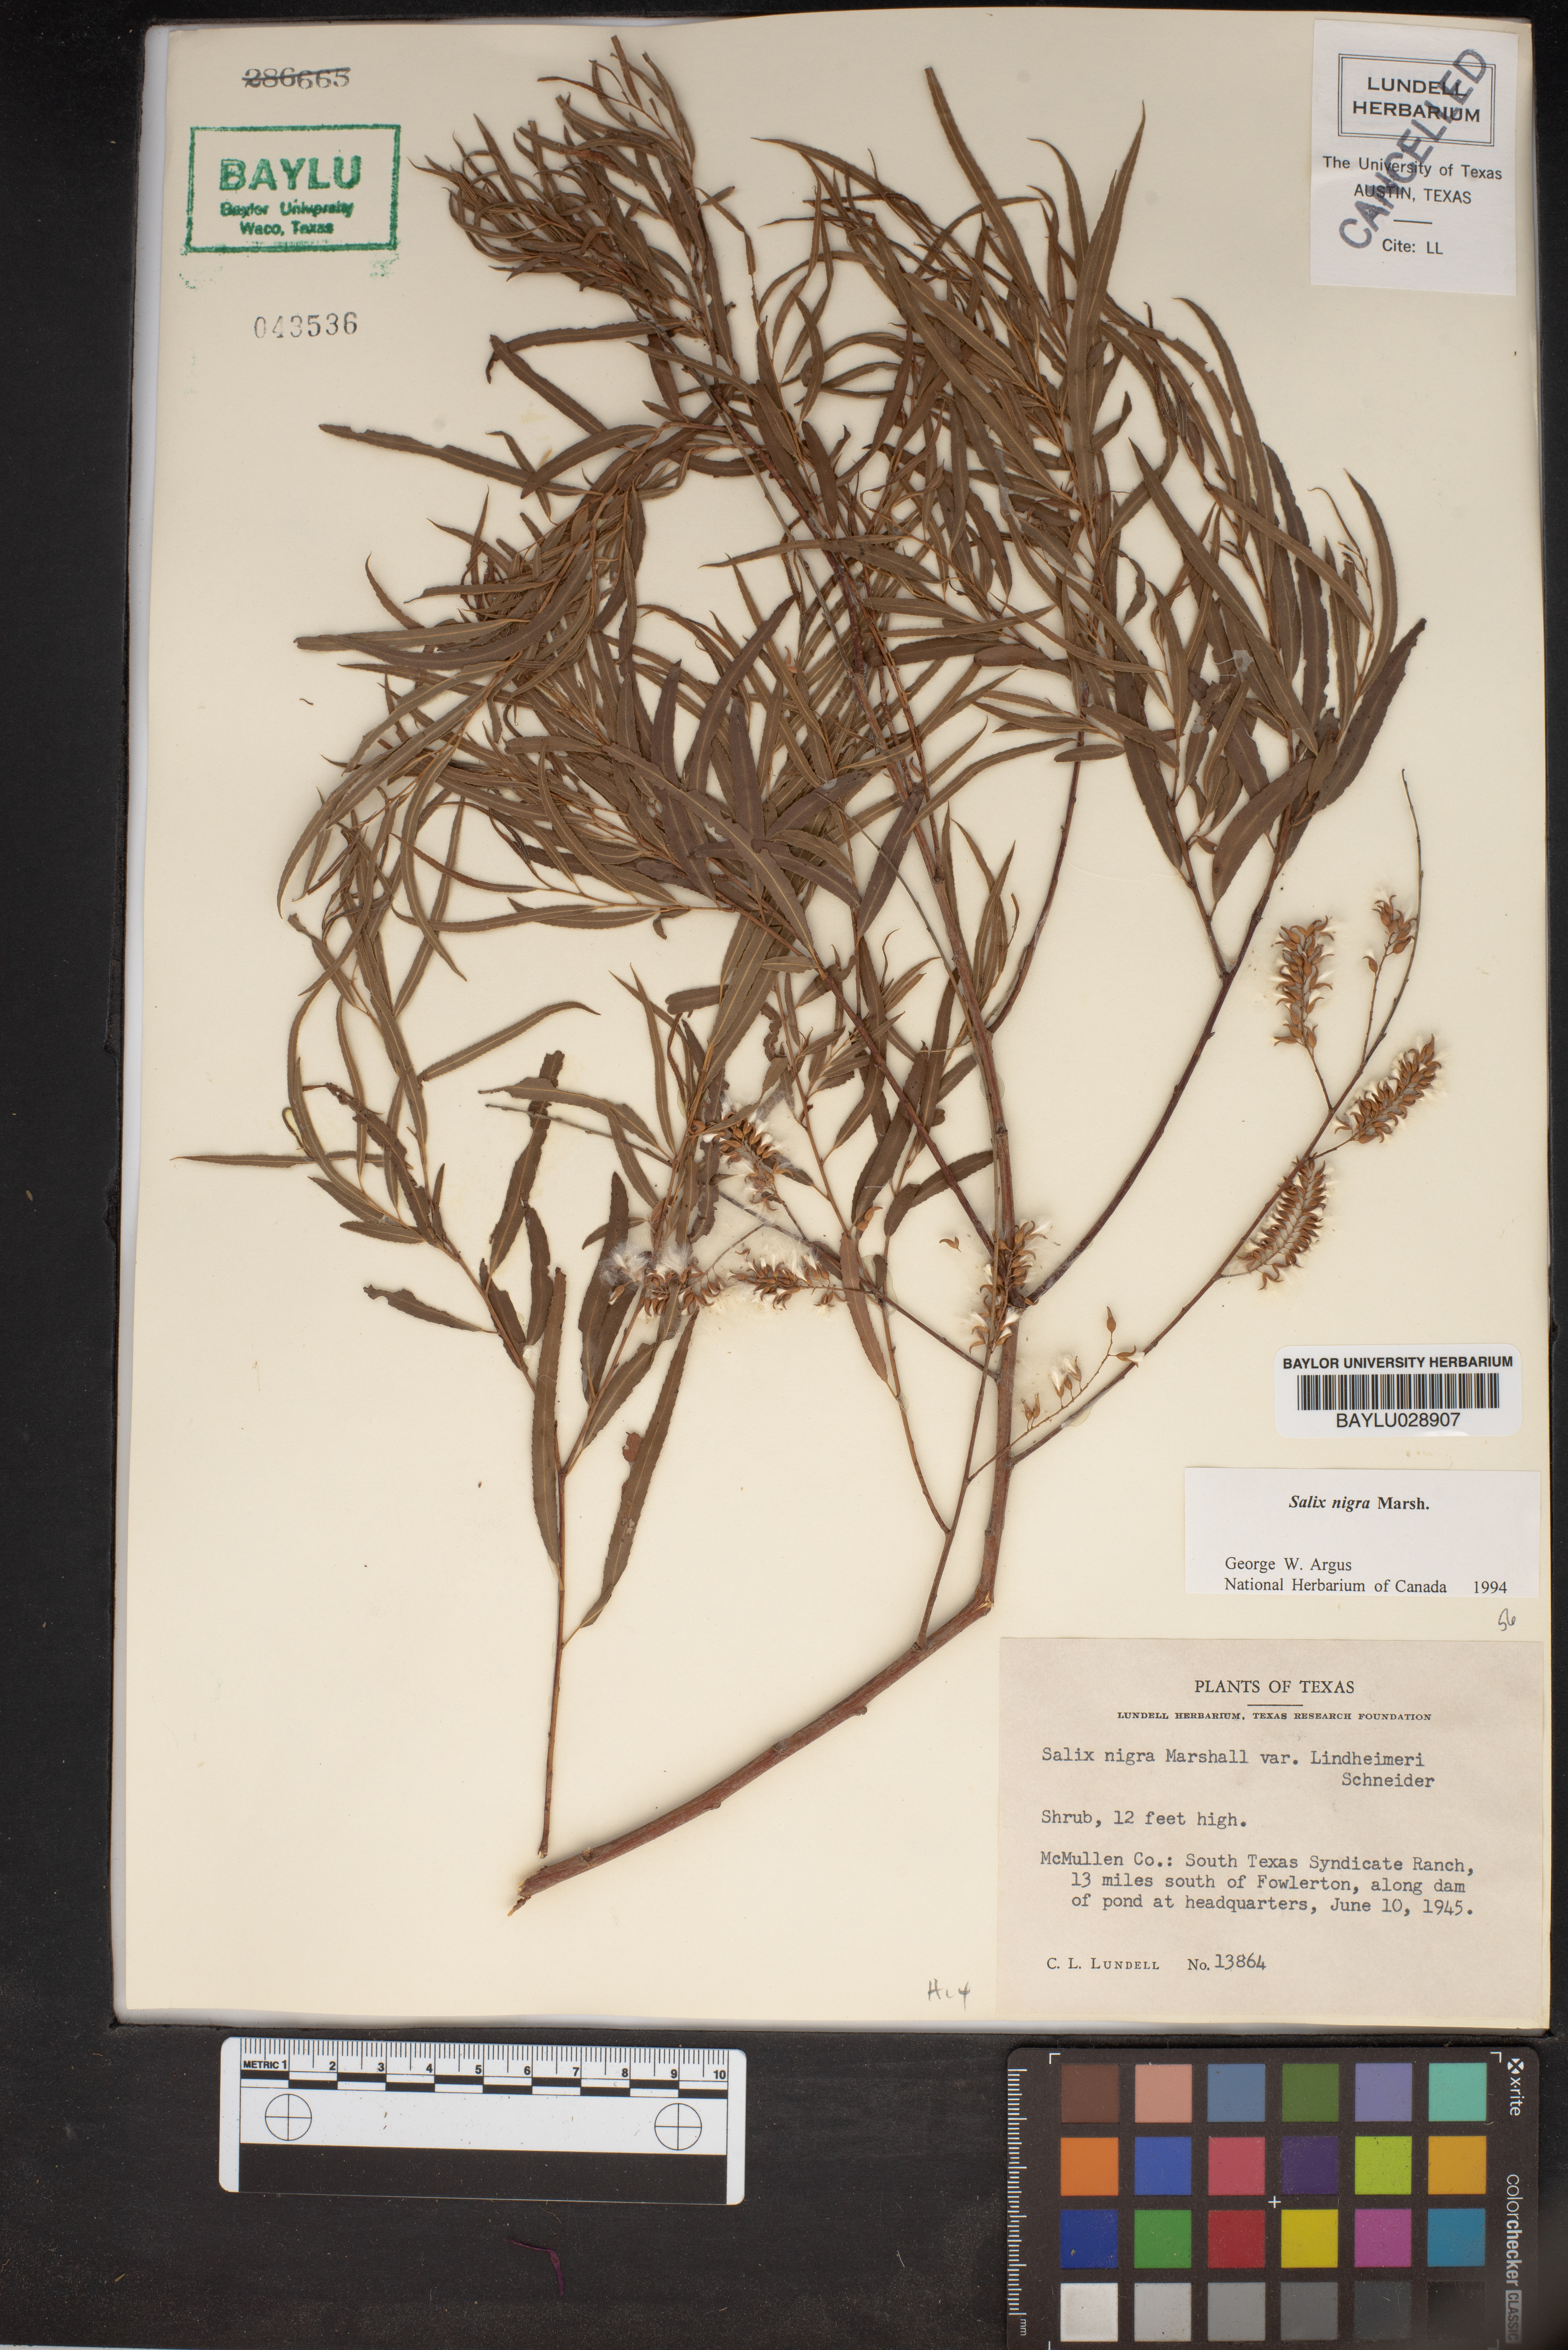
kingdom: Plantae
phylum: Tracheophyta
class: Magnoliopsida
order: Malpighiales
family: Salicaceae
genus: Salix
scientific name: Salix nigra
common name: Black willow
